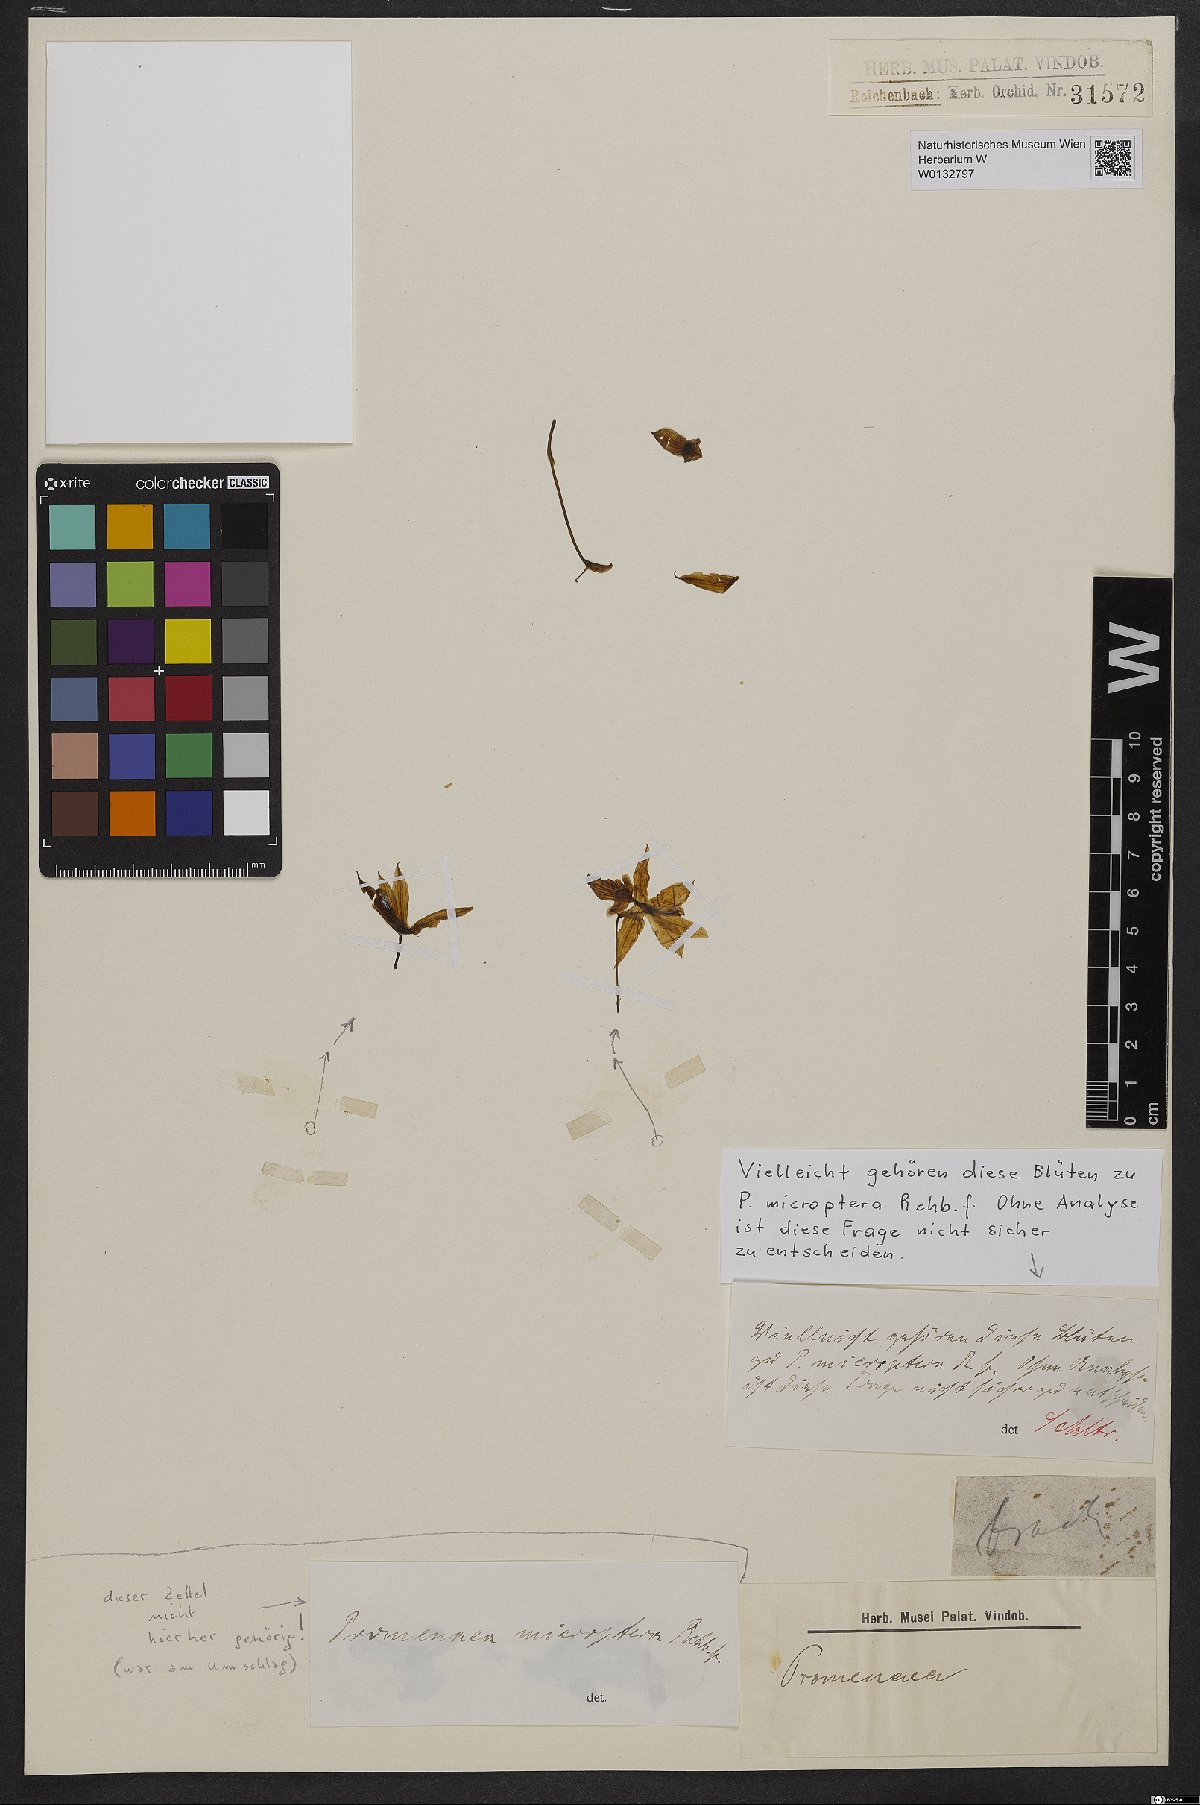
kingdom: Plantae
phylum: Tracheophyta
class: Liliopsida
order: Asparagales
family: Orchidaceae
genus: Promenaea
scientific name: Promenaea microptera
